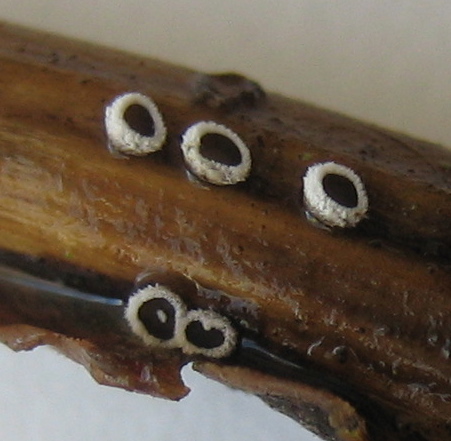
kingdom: Fungi
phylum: Basidiomycota
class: Agaricomycetes
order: Agaricales
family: Niaceae
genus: Lachnella
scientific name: Lachnella alboviolascens
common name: grå frynserede
